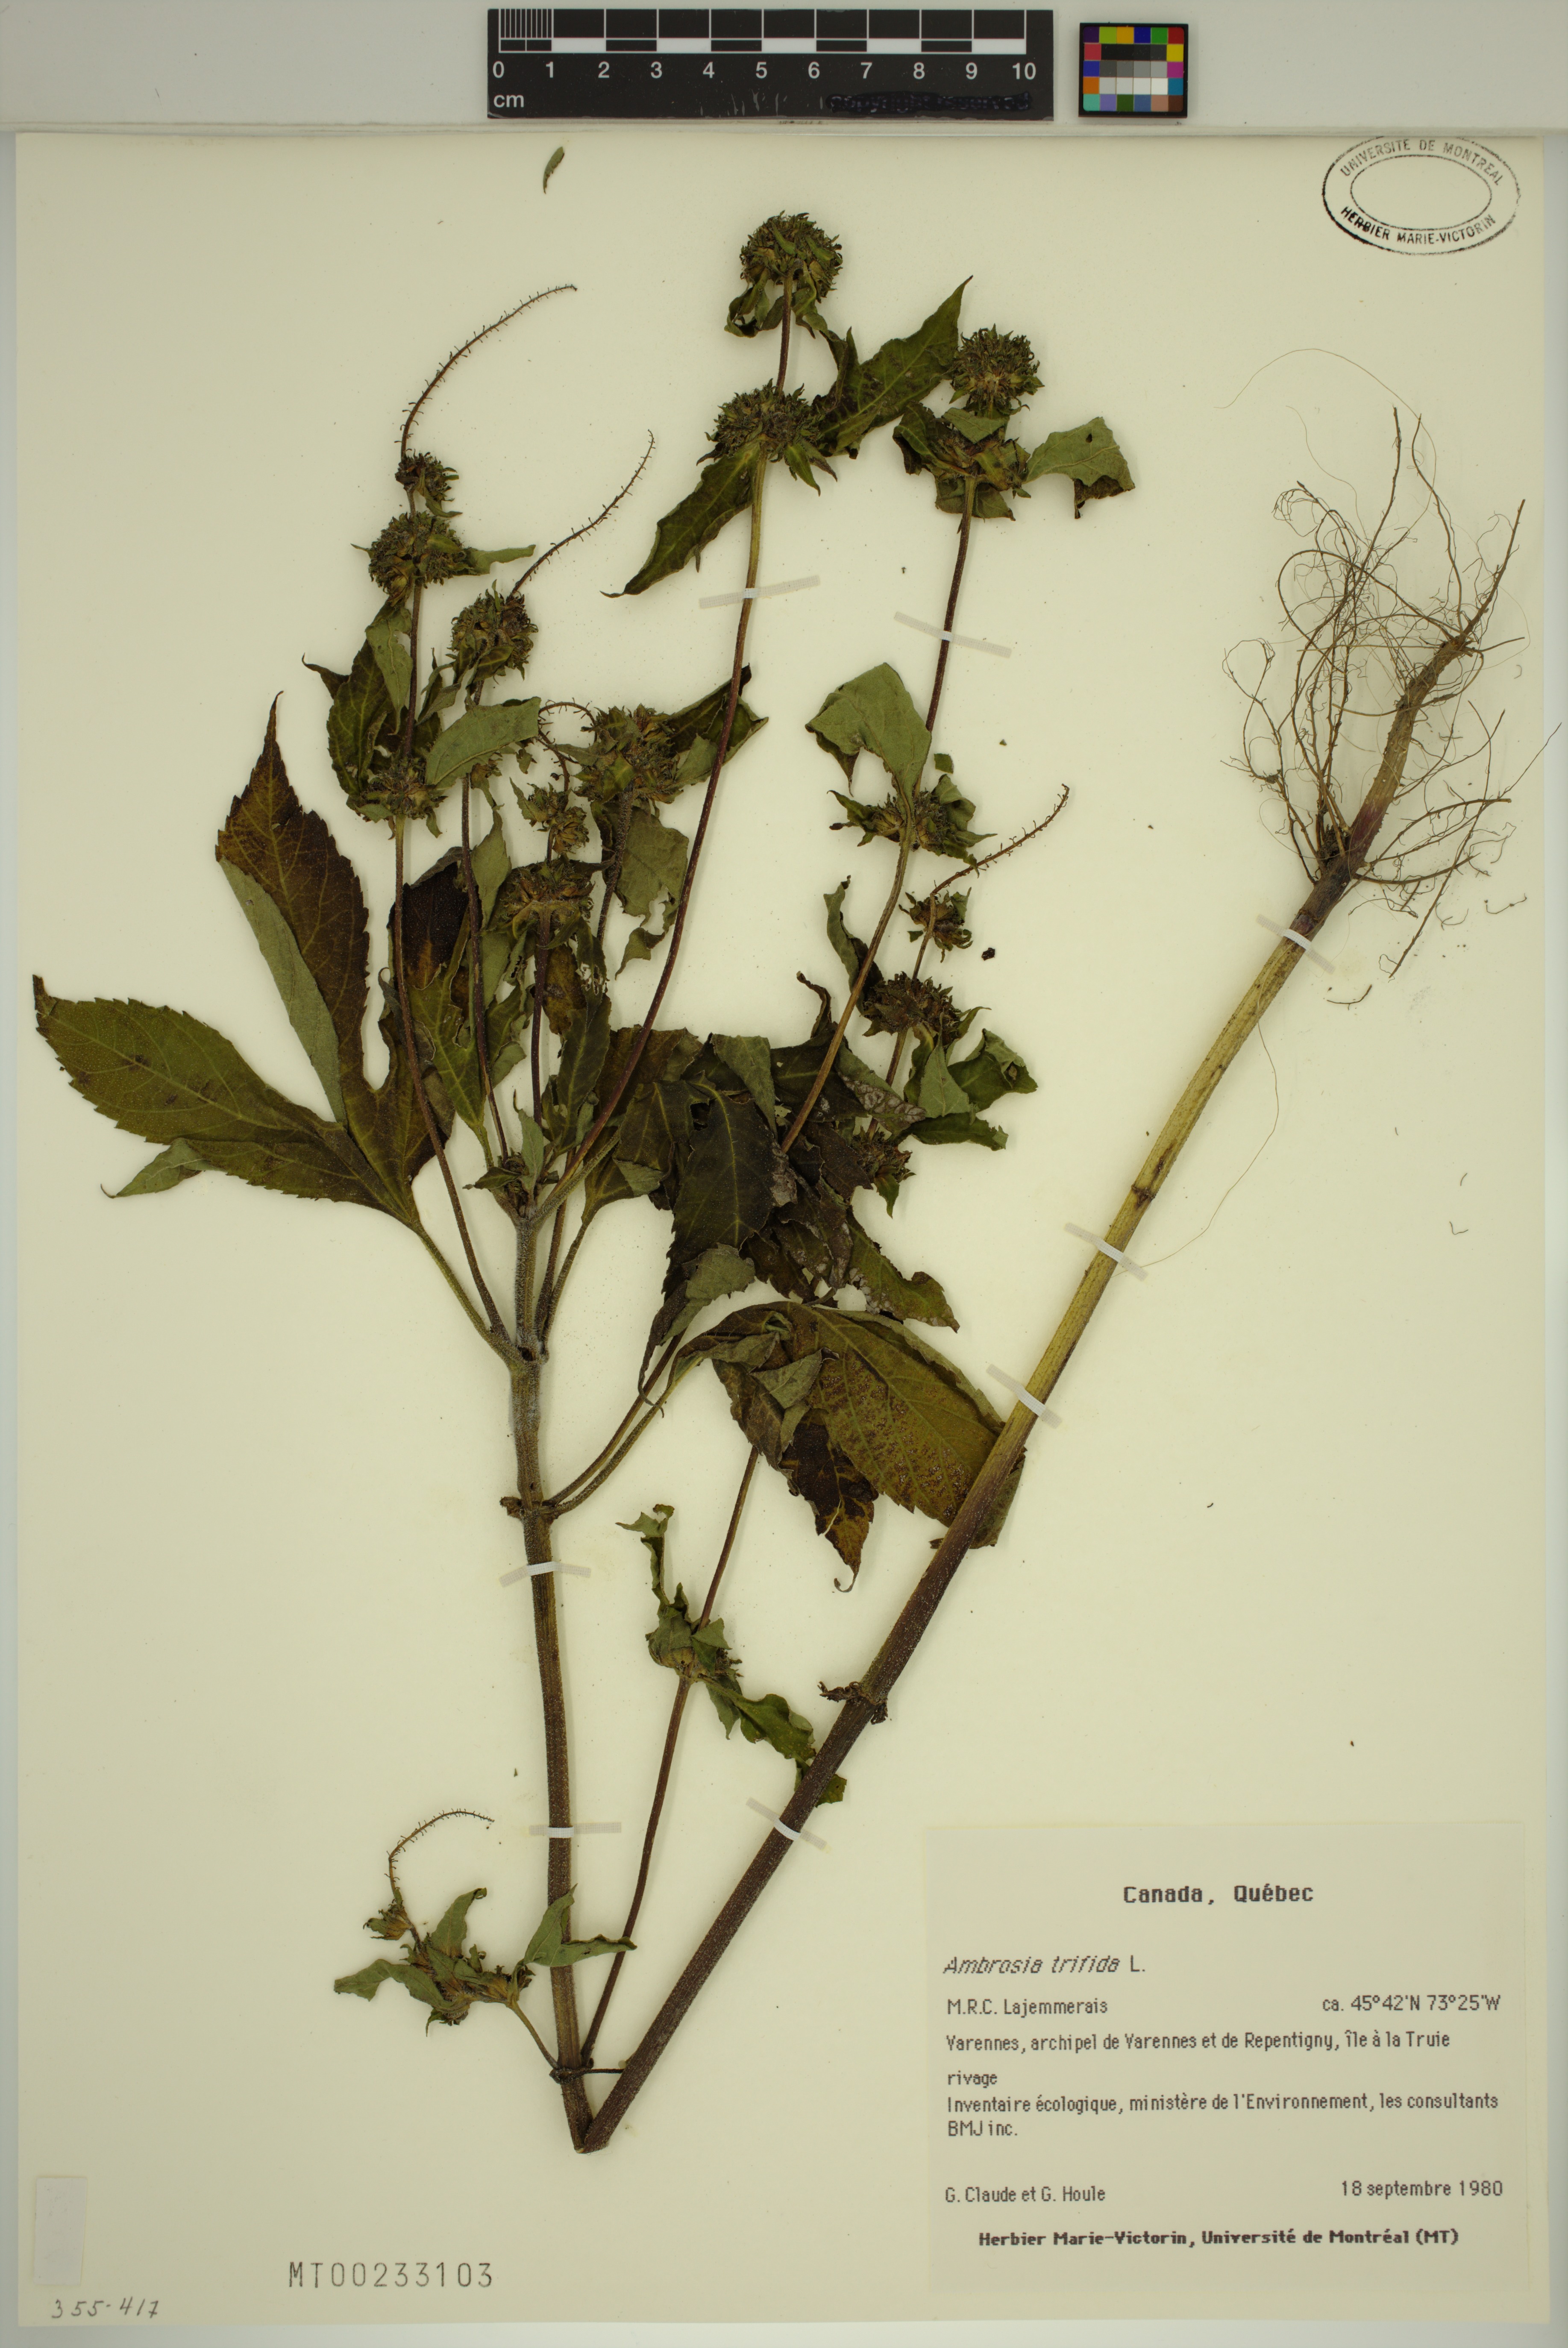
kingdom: Plantae
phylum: Tracheophyta
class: Magnoliopsida
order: Asterales
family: Asteraceae
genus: Ambrosia
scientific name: Ambrosia trifida
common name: Giant ragweed
